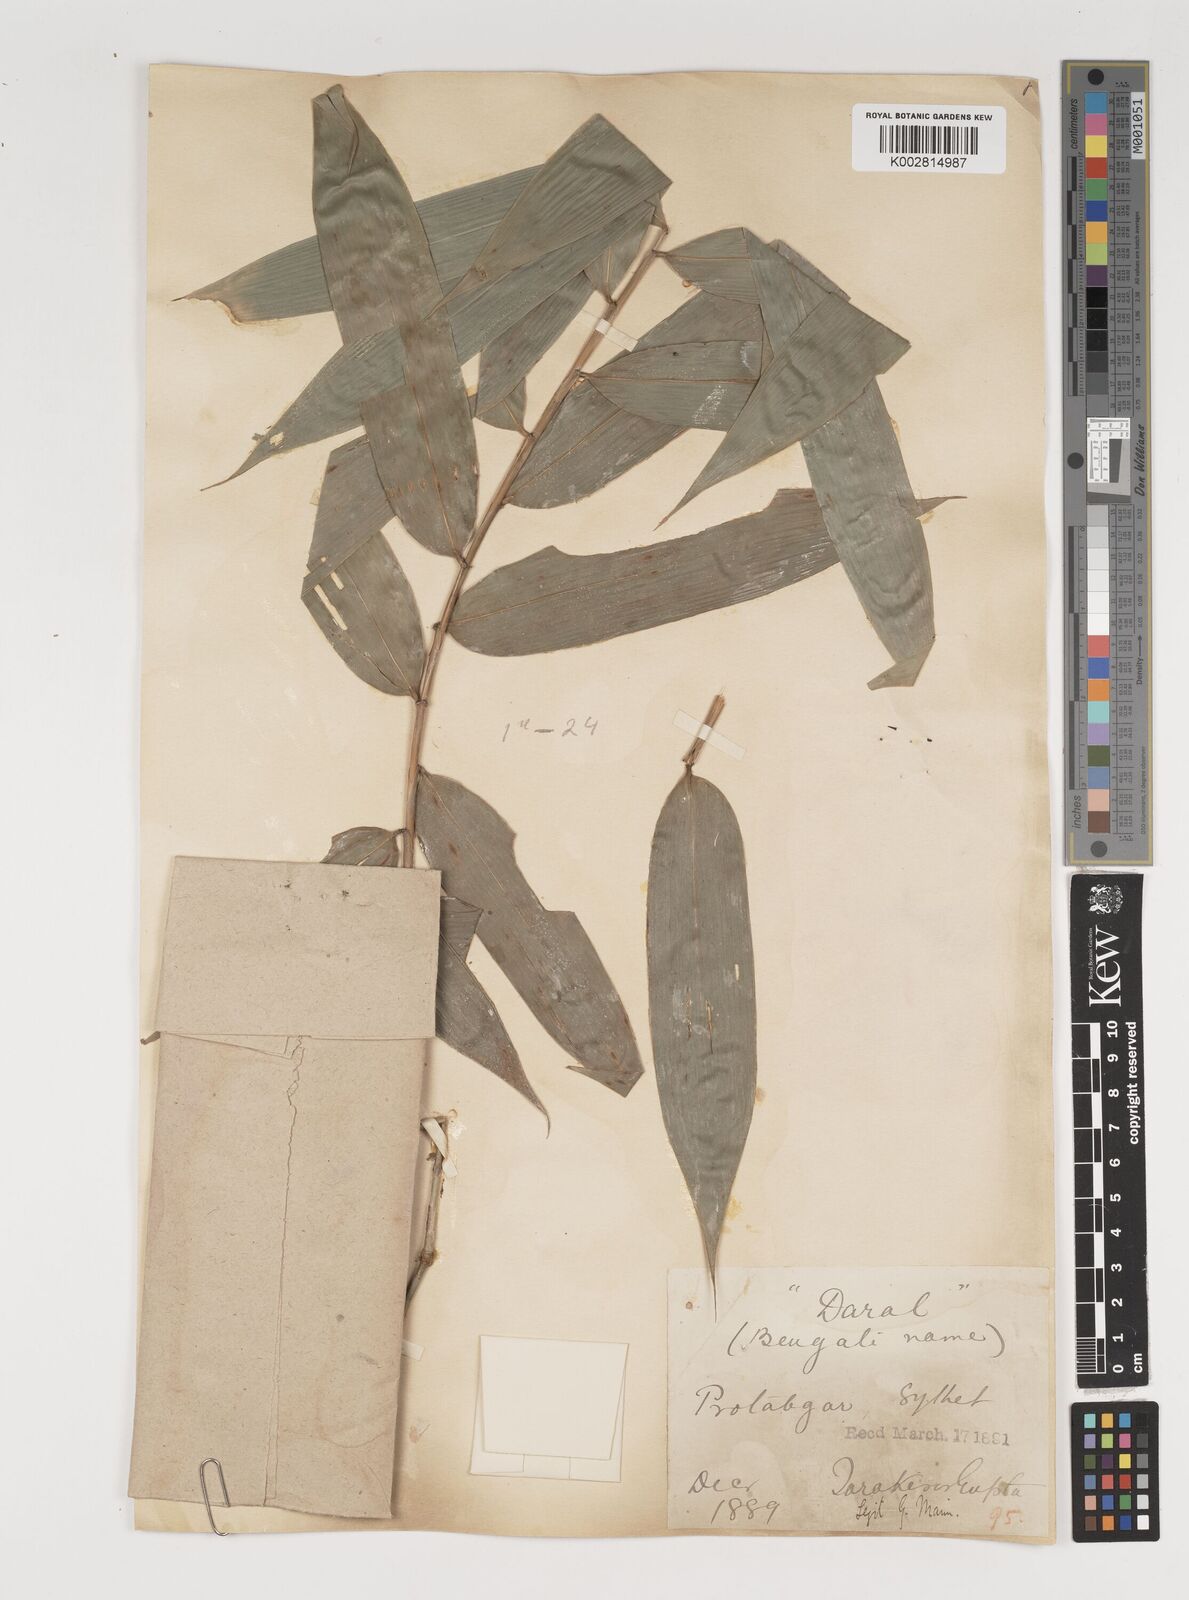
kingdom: Plantae
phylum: Tracheophyta
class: Liliopsida
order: Poales
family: Poaceae
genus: Melocalamus
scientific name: Melocalamus compactiflorus
